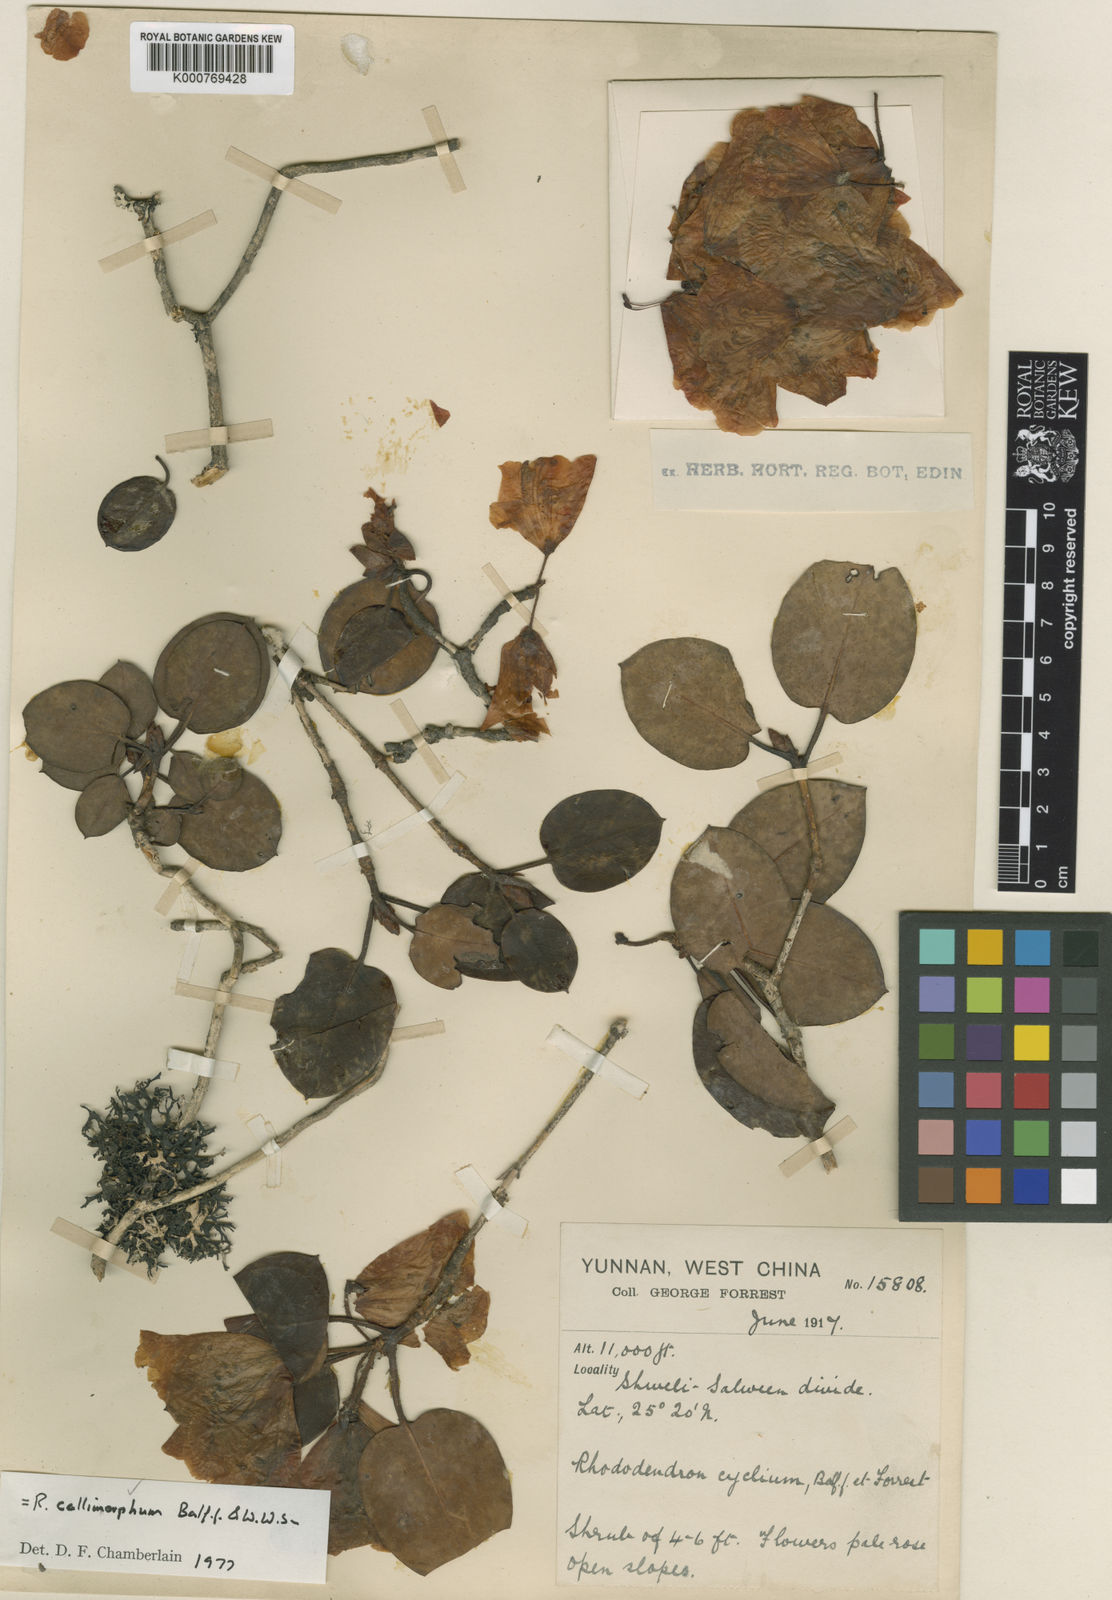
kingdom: Plantae
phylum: Tracheophyta
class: Magnoliopsida
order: Ericales
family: Ericaceae
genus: Rhododendron
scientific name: Rhododendron callimorphum
